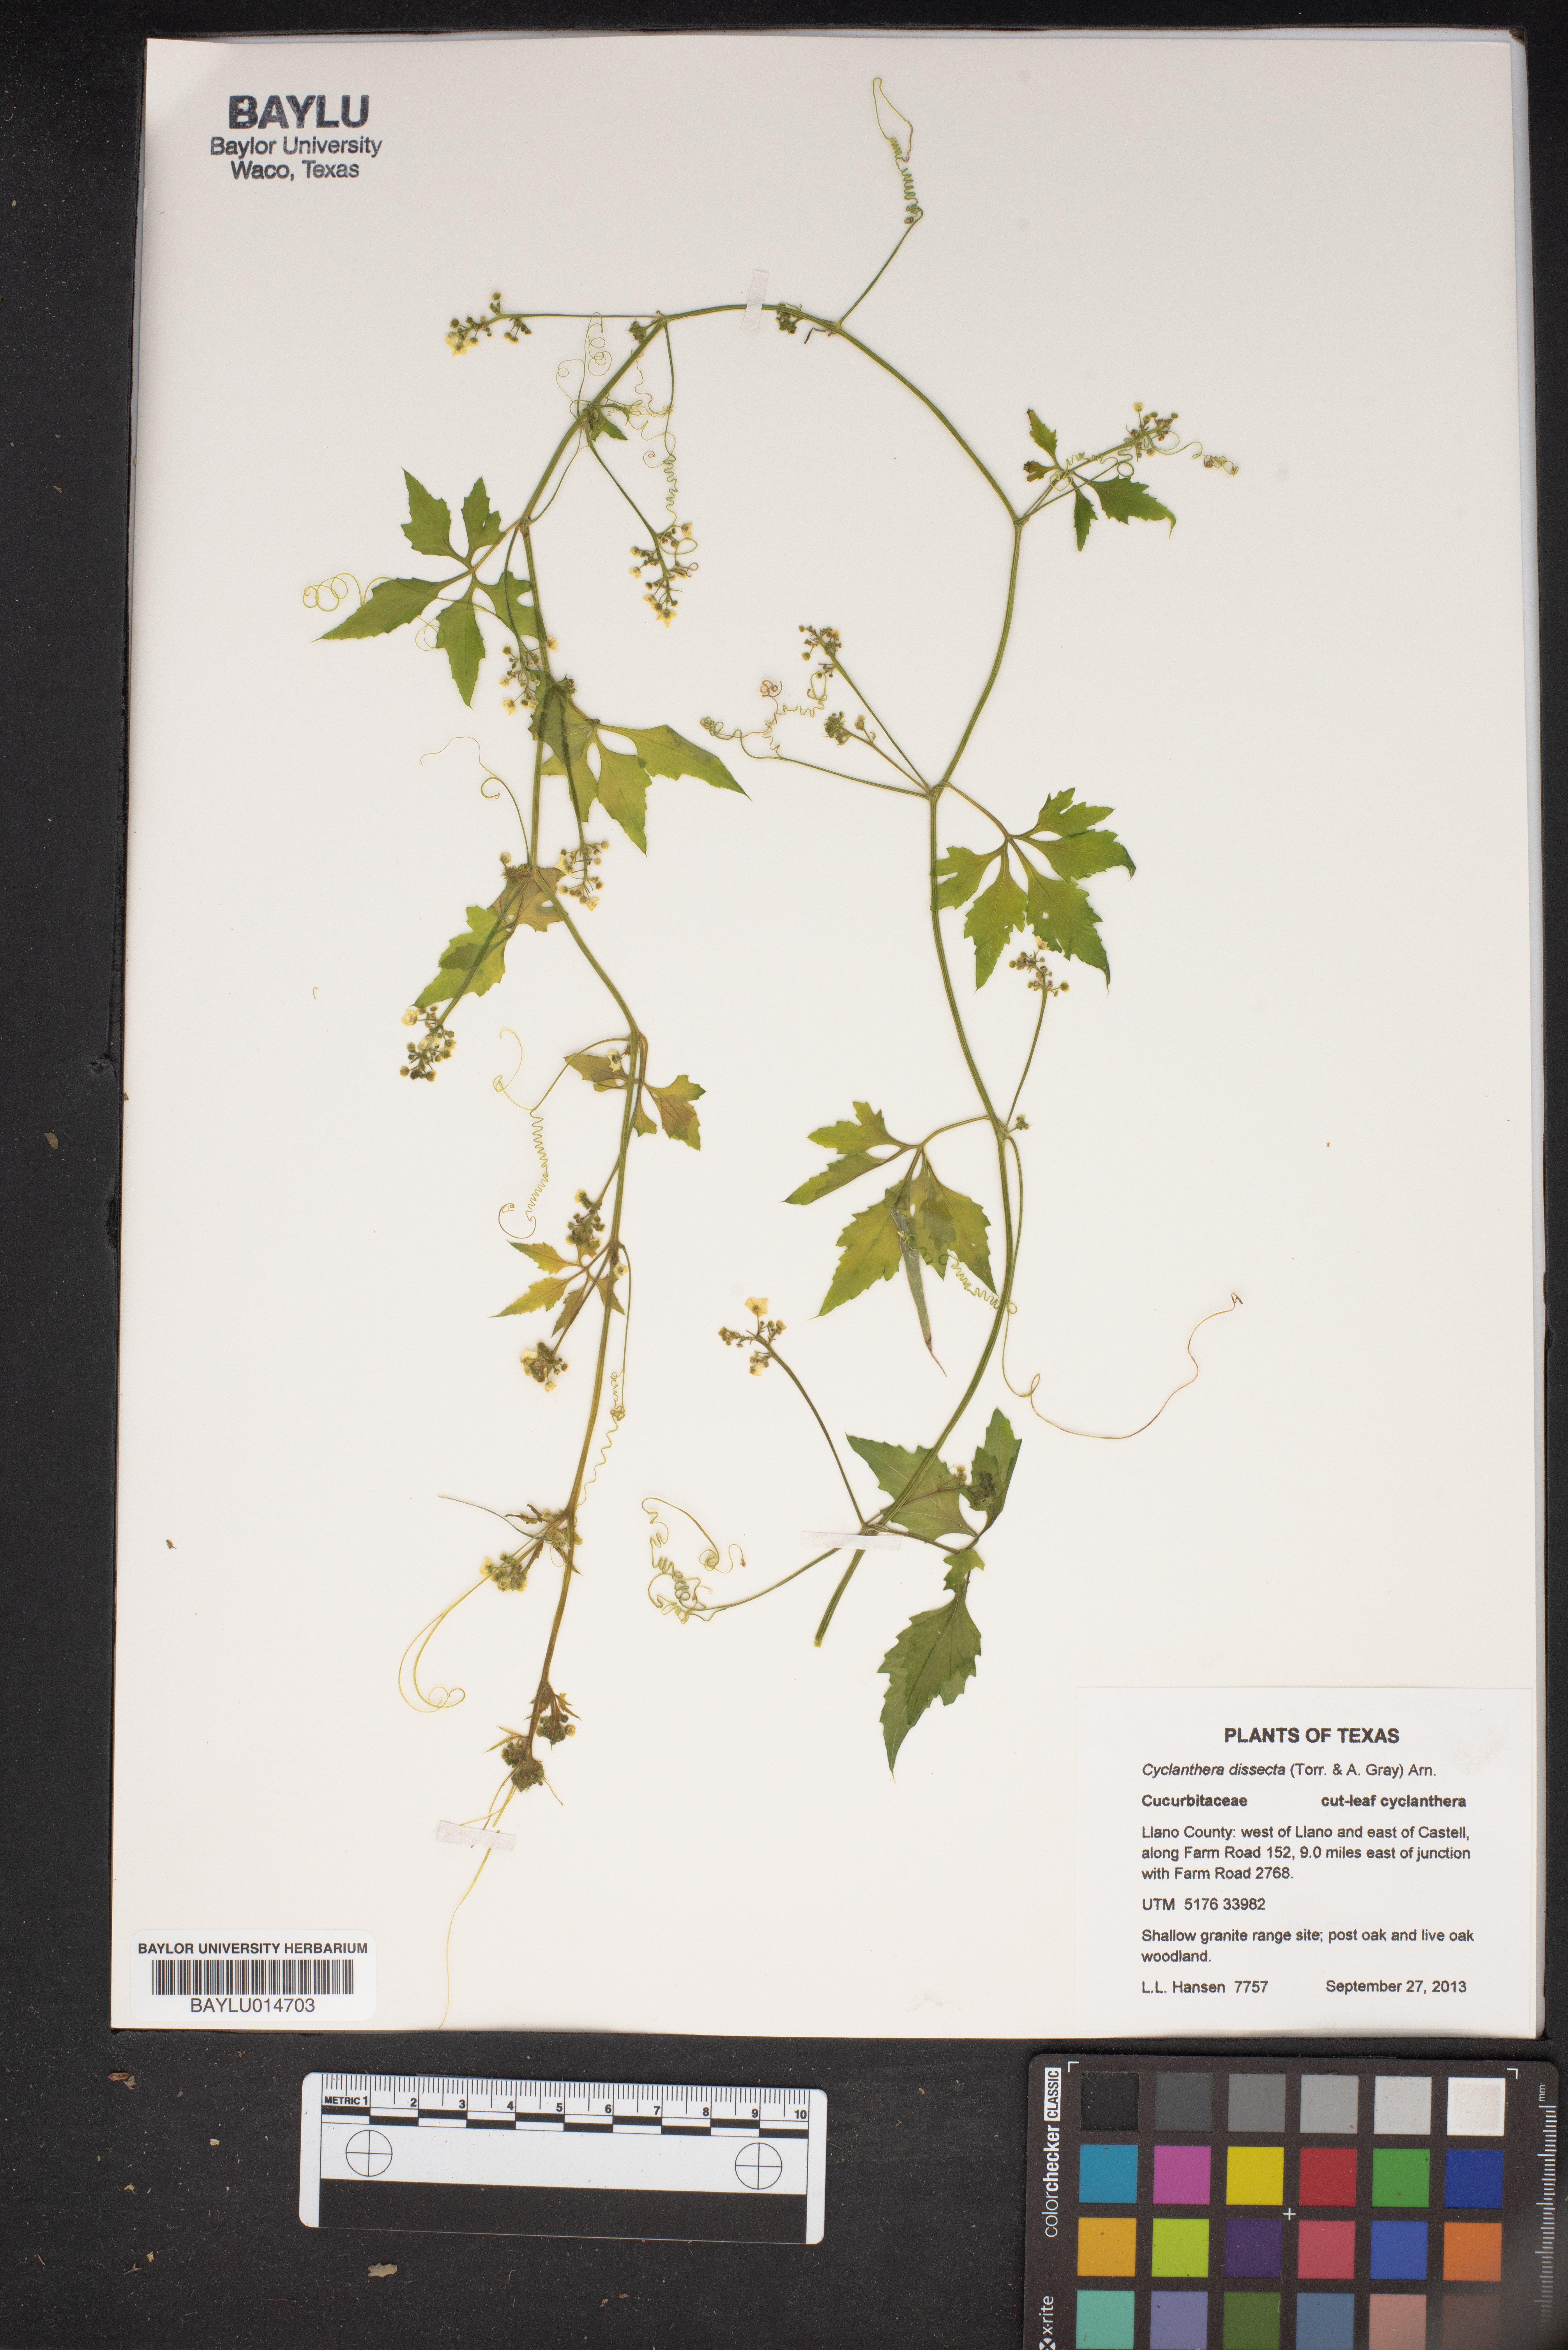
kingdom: Plantae
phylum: Tracheophyta
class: Magnoliopsida
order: Cucurbitales
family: Cucurbitaceae
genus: Cyclanthera
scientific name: Cyclanthera dissecta
